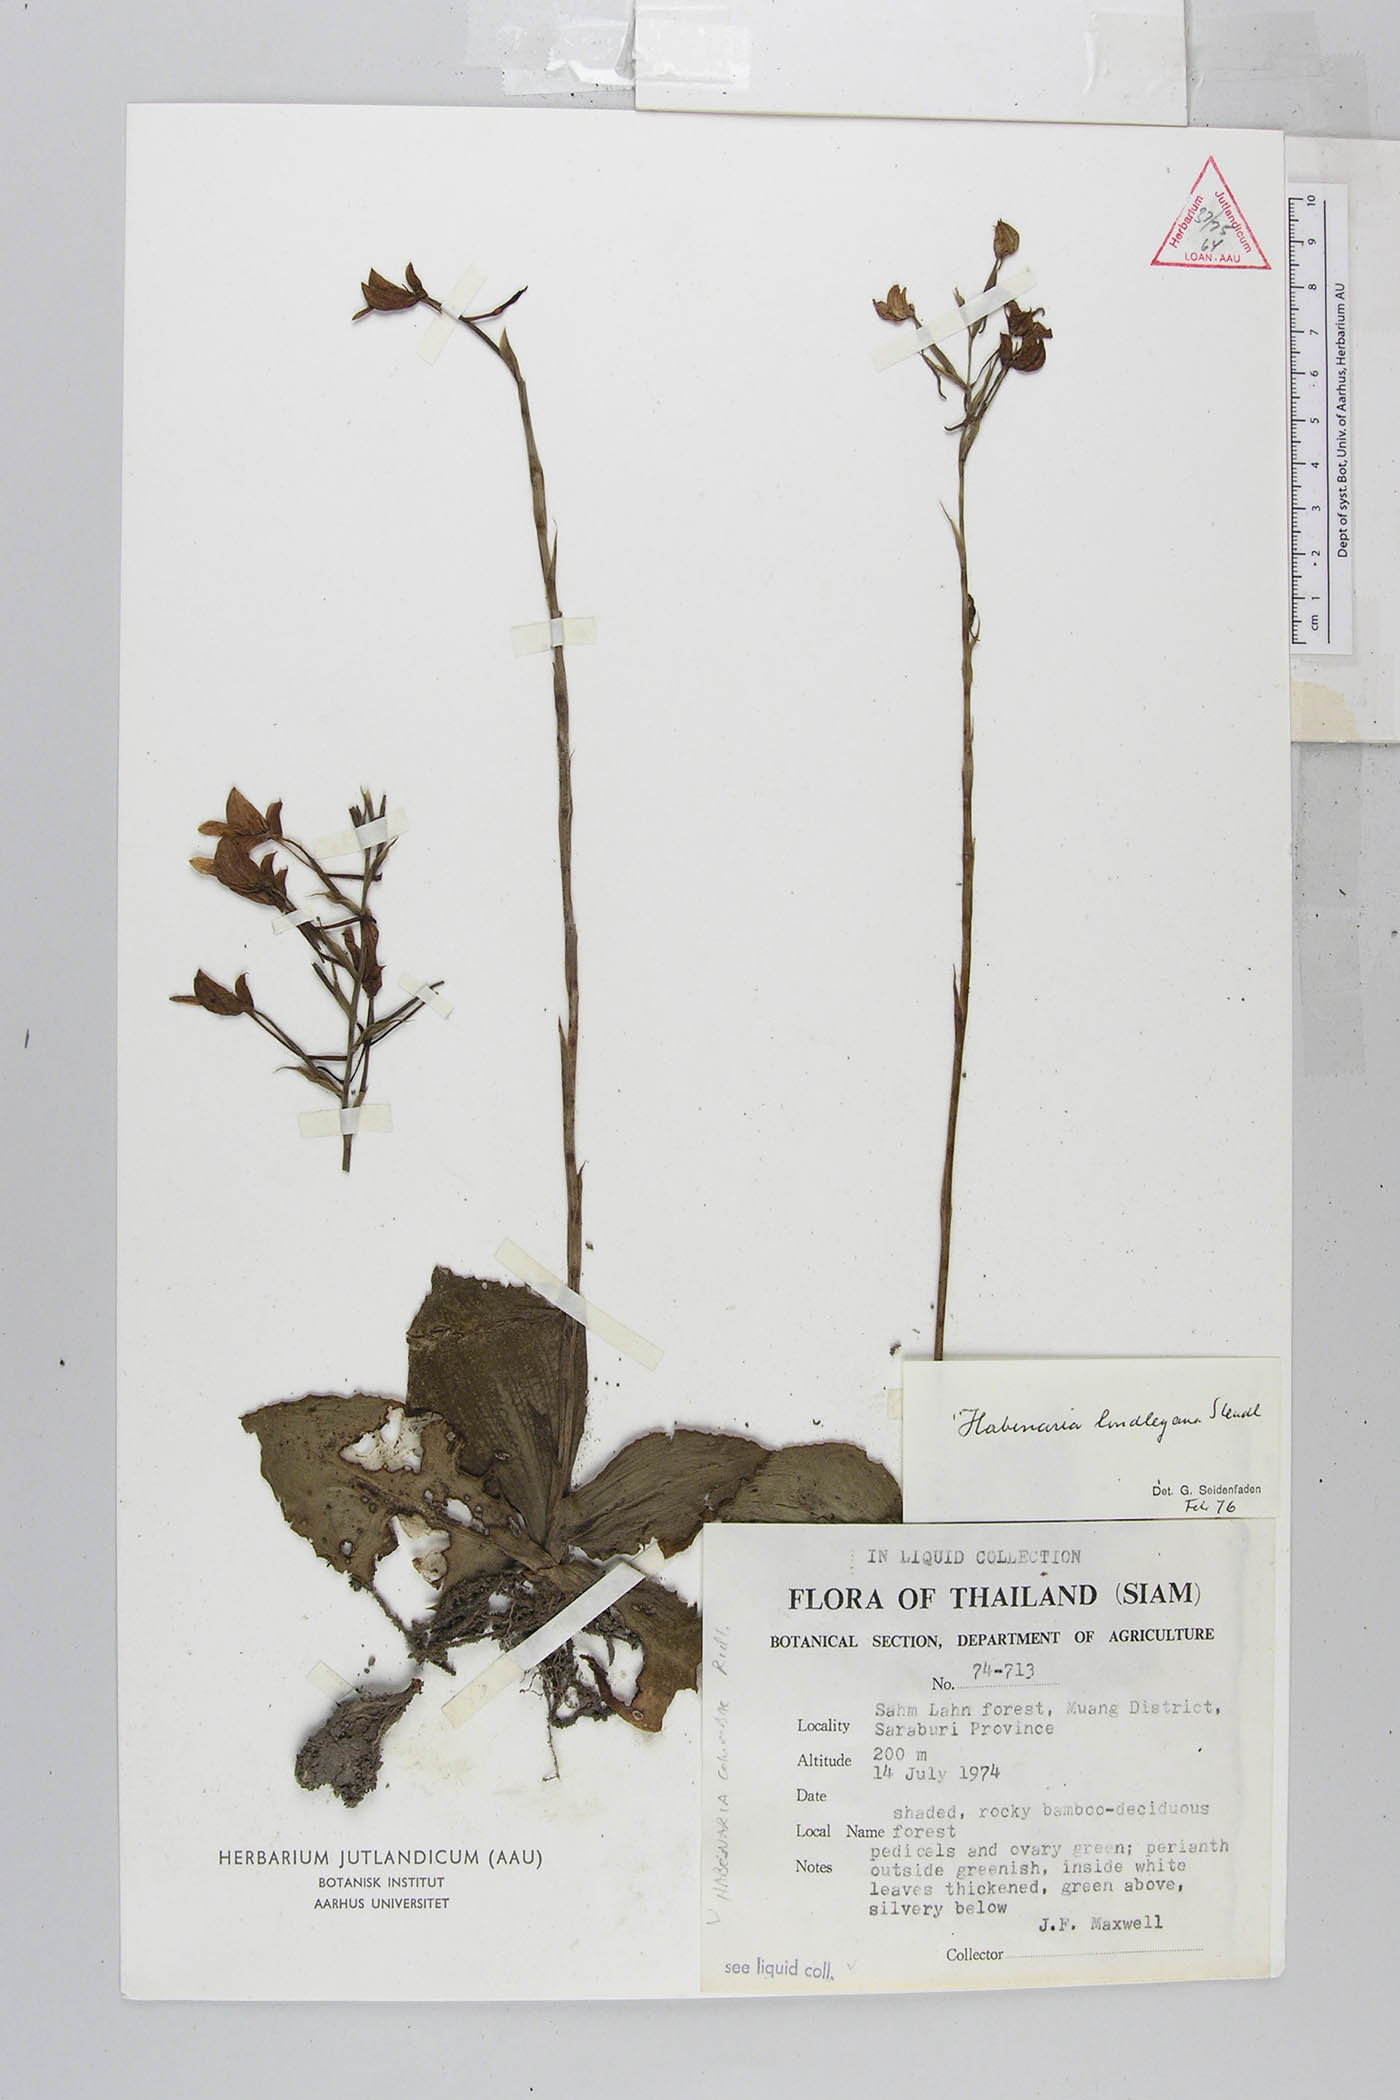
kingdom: Plantae
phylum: Tracheophyta
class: Liliopsida
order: Asparagales
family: Orchidaceae
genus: Habenaria
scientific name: Habenaria lindleyana
